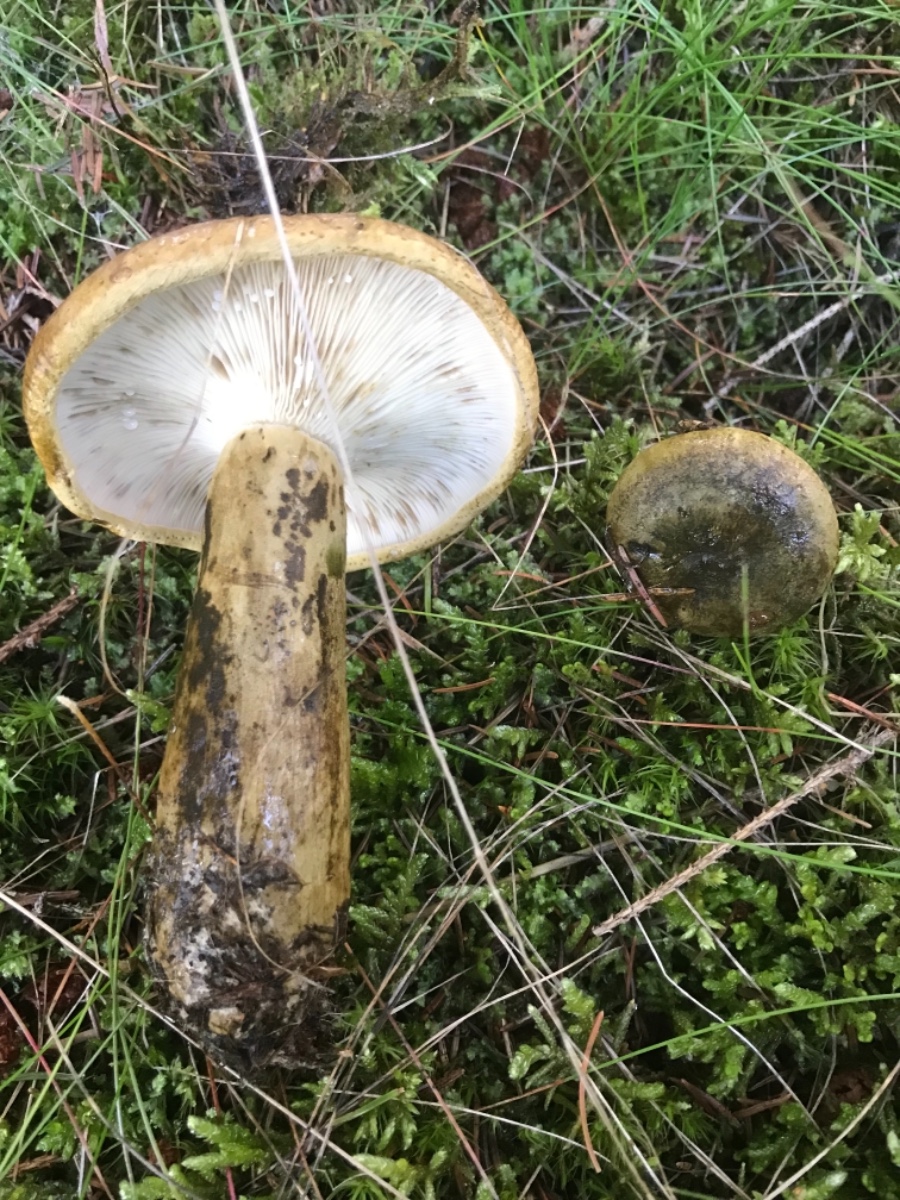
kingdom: Fungi
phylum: Basidiomycota
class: Agaricomycetes
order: Russulales
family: Russulaceae
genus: Lactarius
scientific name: Lactarius necator
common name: manddraber-mælkehat
